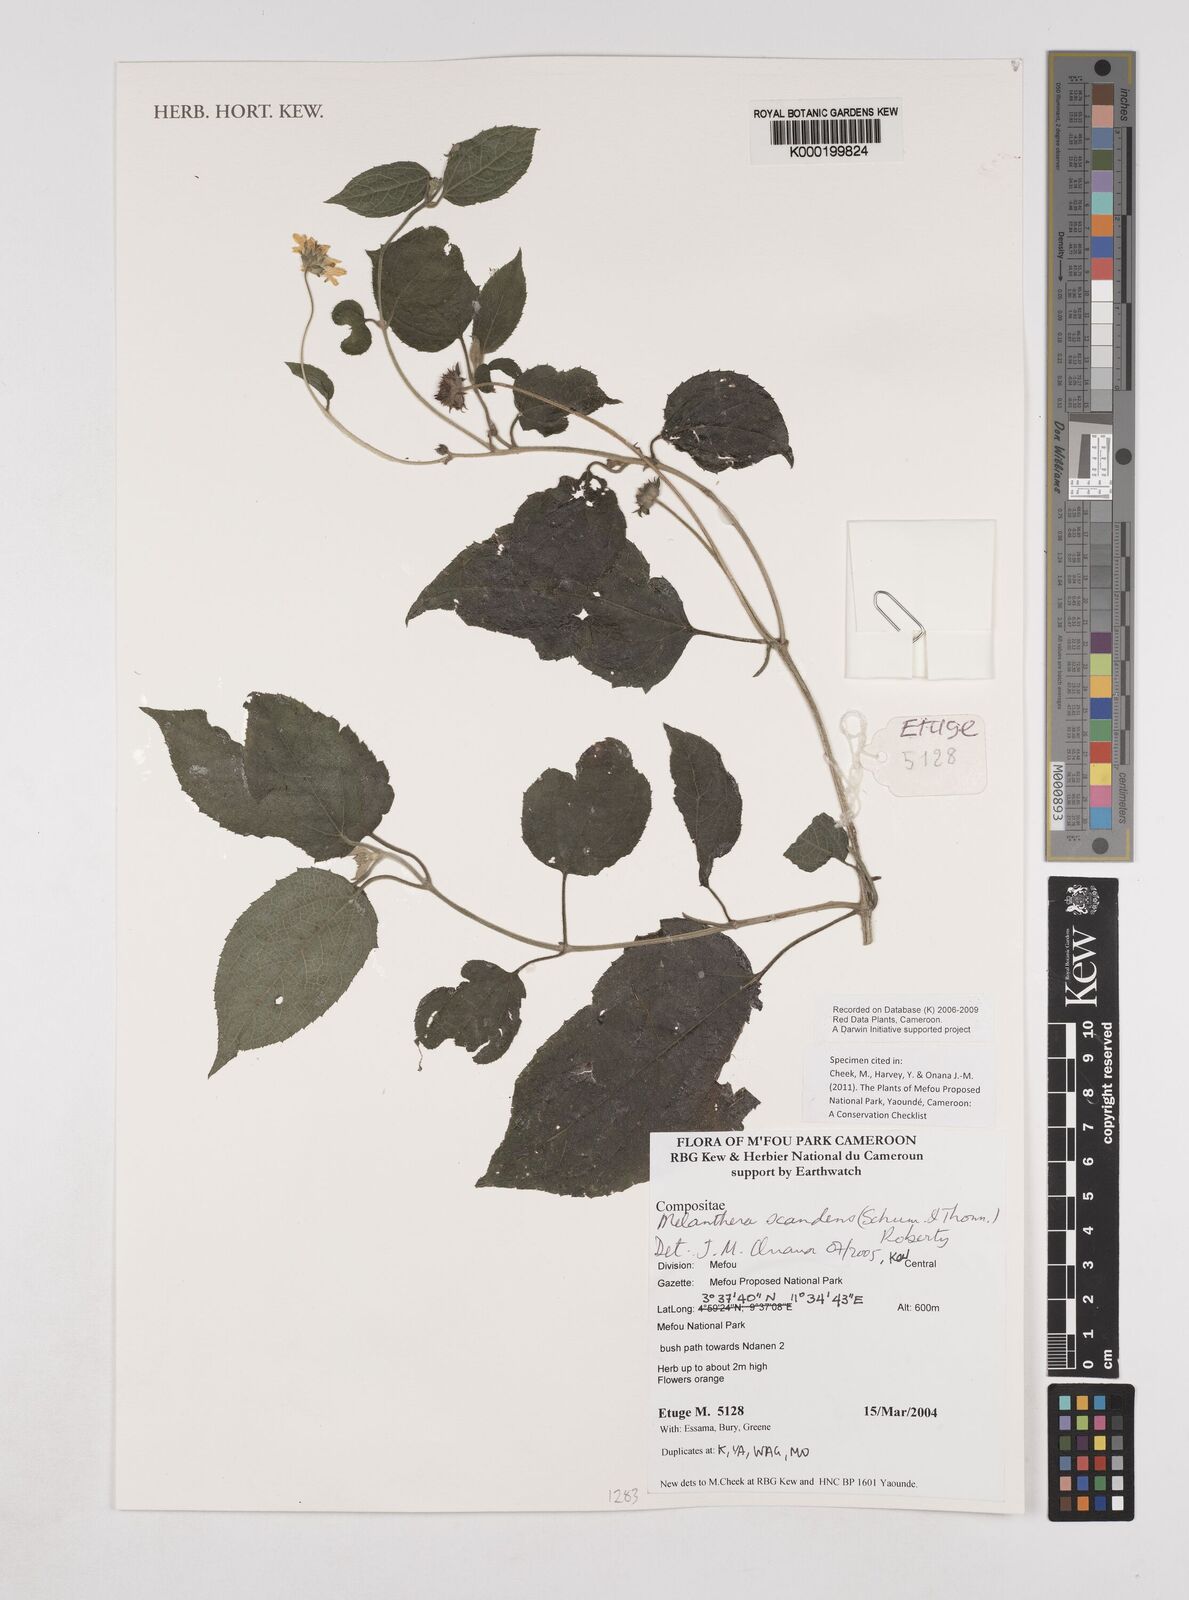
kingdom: Plantae
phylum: Tracheophyta
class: Magnoliopsida
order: Asterales
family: Asteraceae
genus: Melanthera
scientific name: Melanthera
